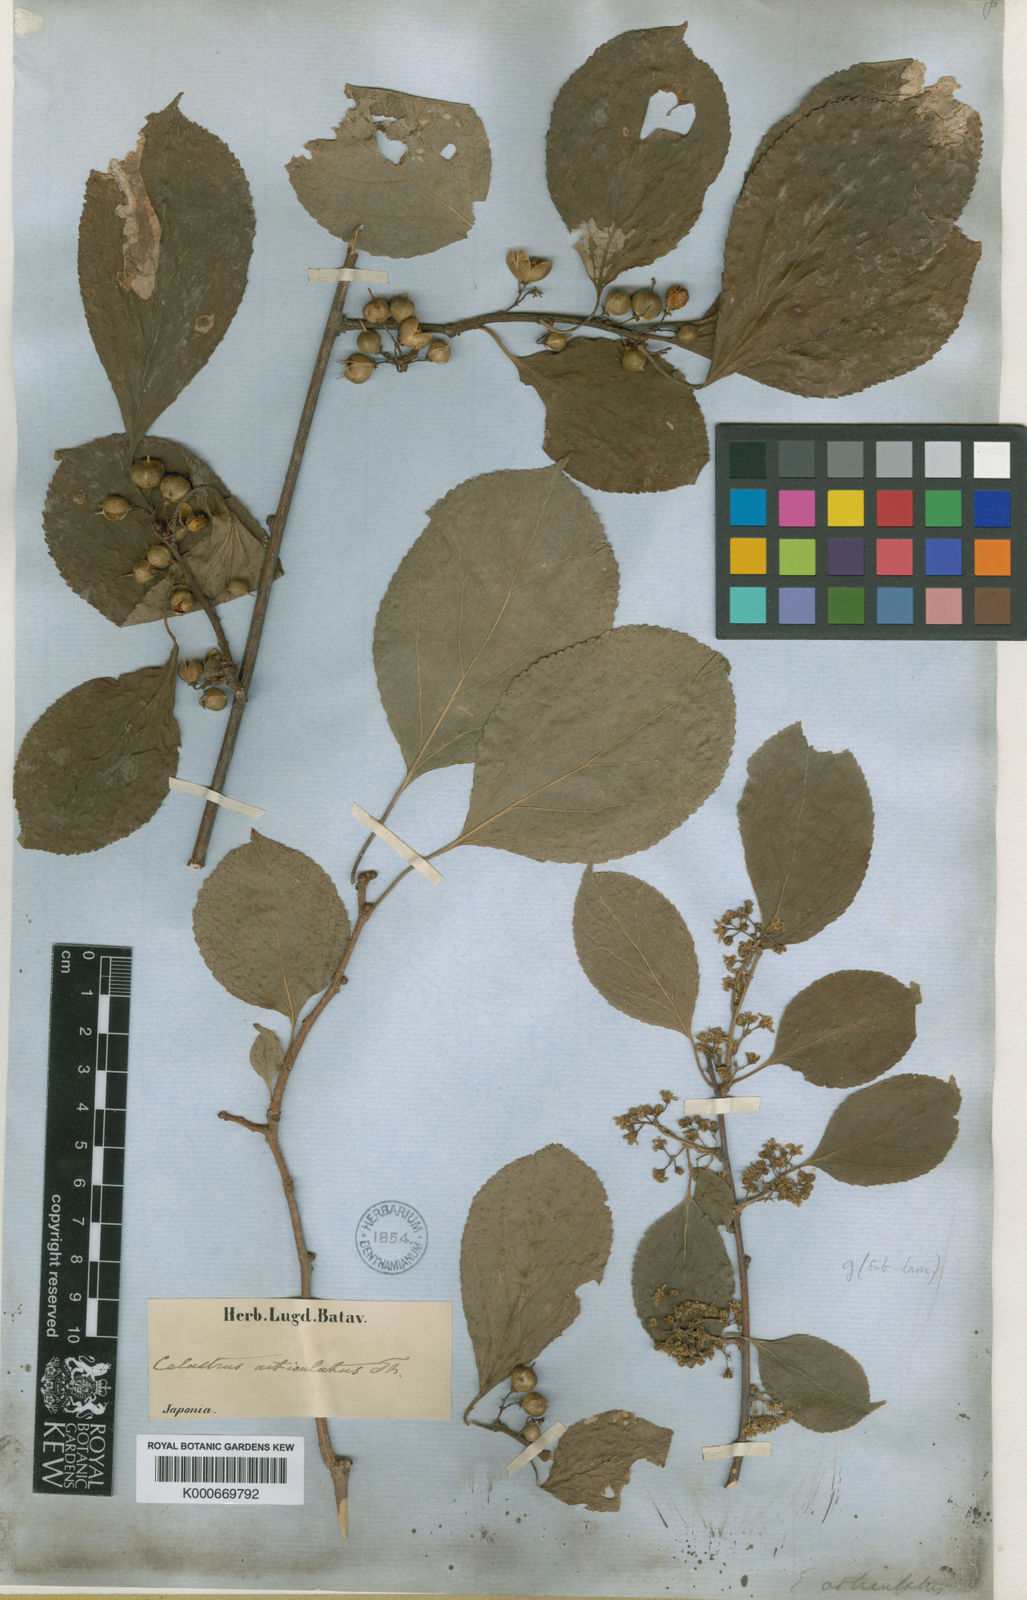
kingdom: Plantae
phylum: Tracheophyta
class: Magnoliopsida
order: Celastrales
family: Celastraceae
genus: Celastrus
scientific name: Celastrus orbiculatus
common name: Oriental bittersweet
